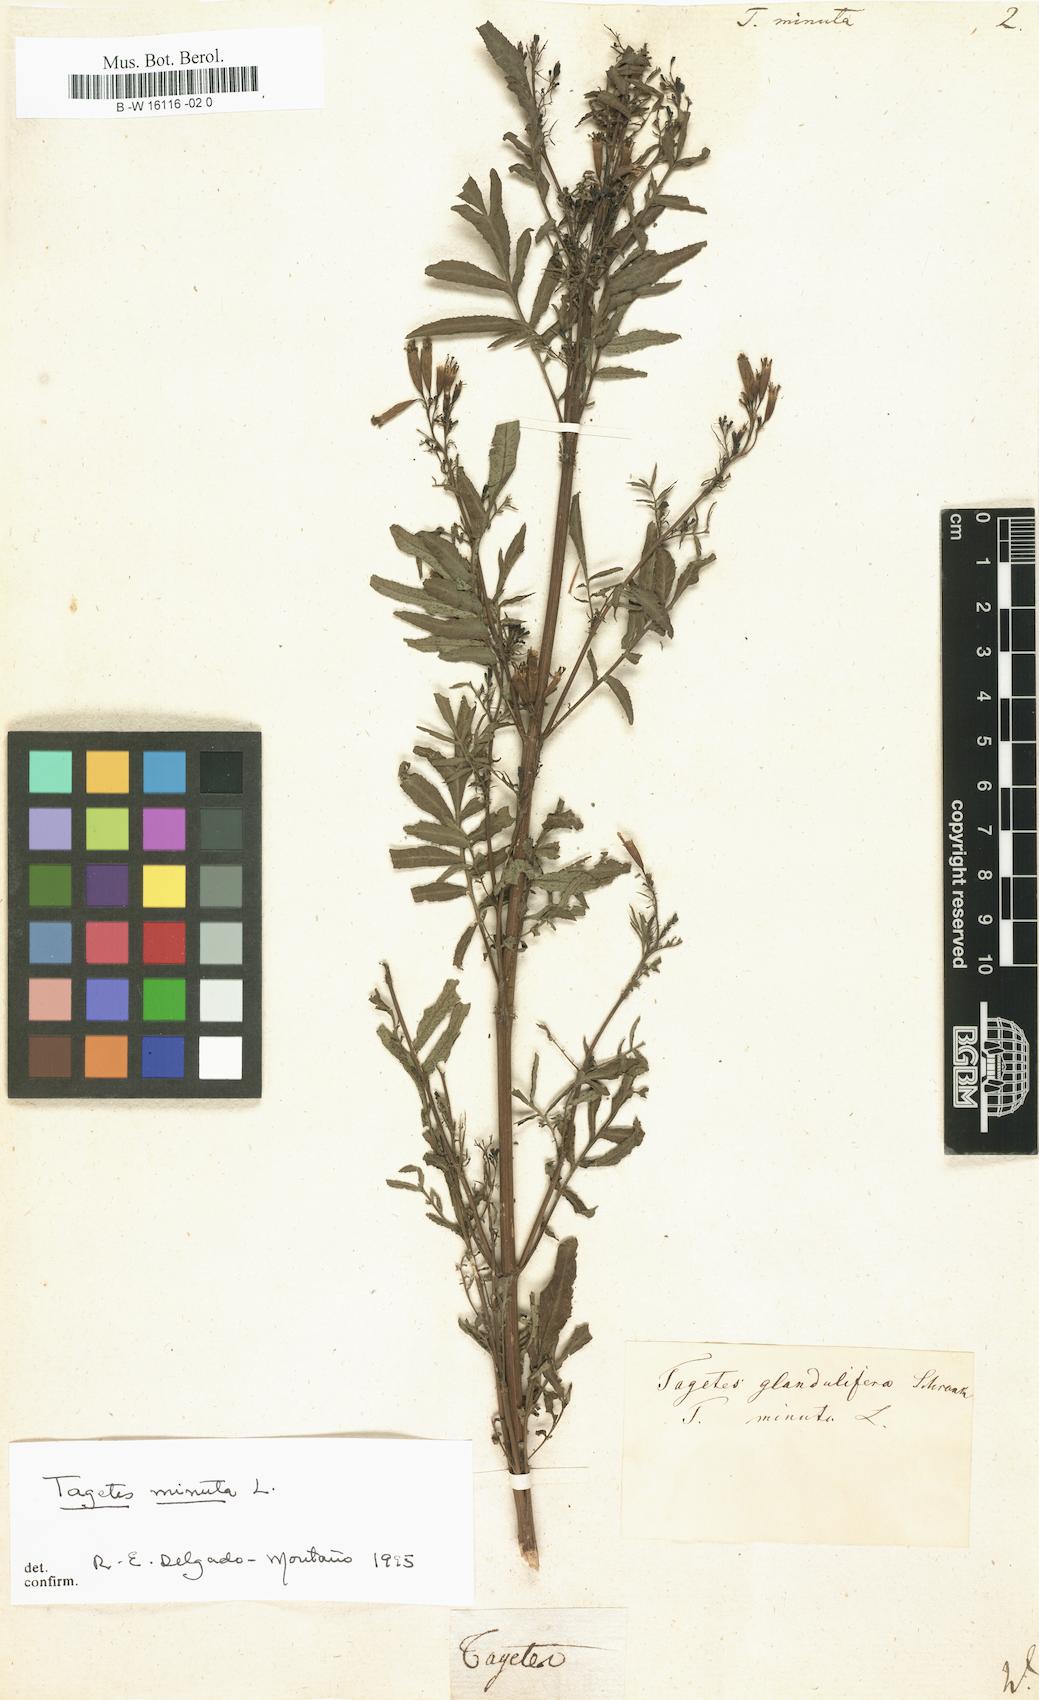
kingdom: Plantae
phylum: Tracheophyta
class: Magnoliopsida
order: Asterales
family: Asteraceae
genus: Tagetes
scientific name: Tagetes minuta
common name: Muster john henry
